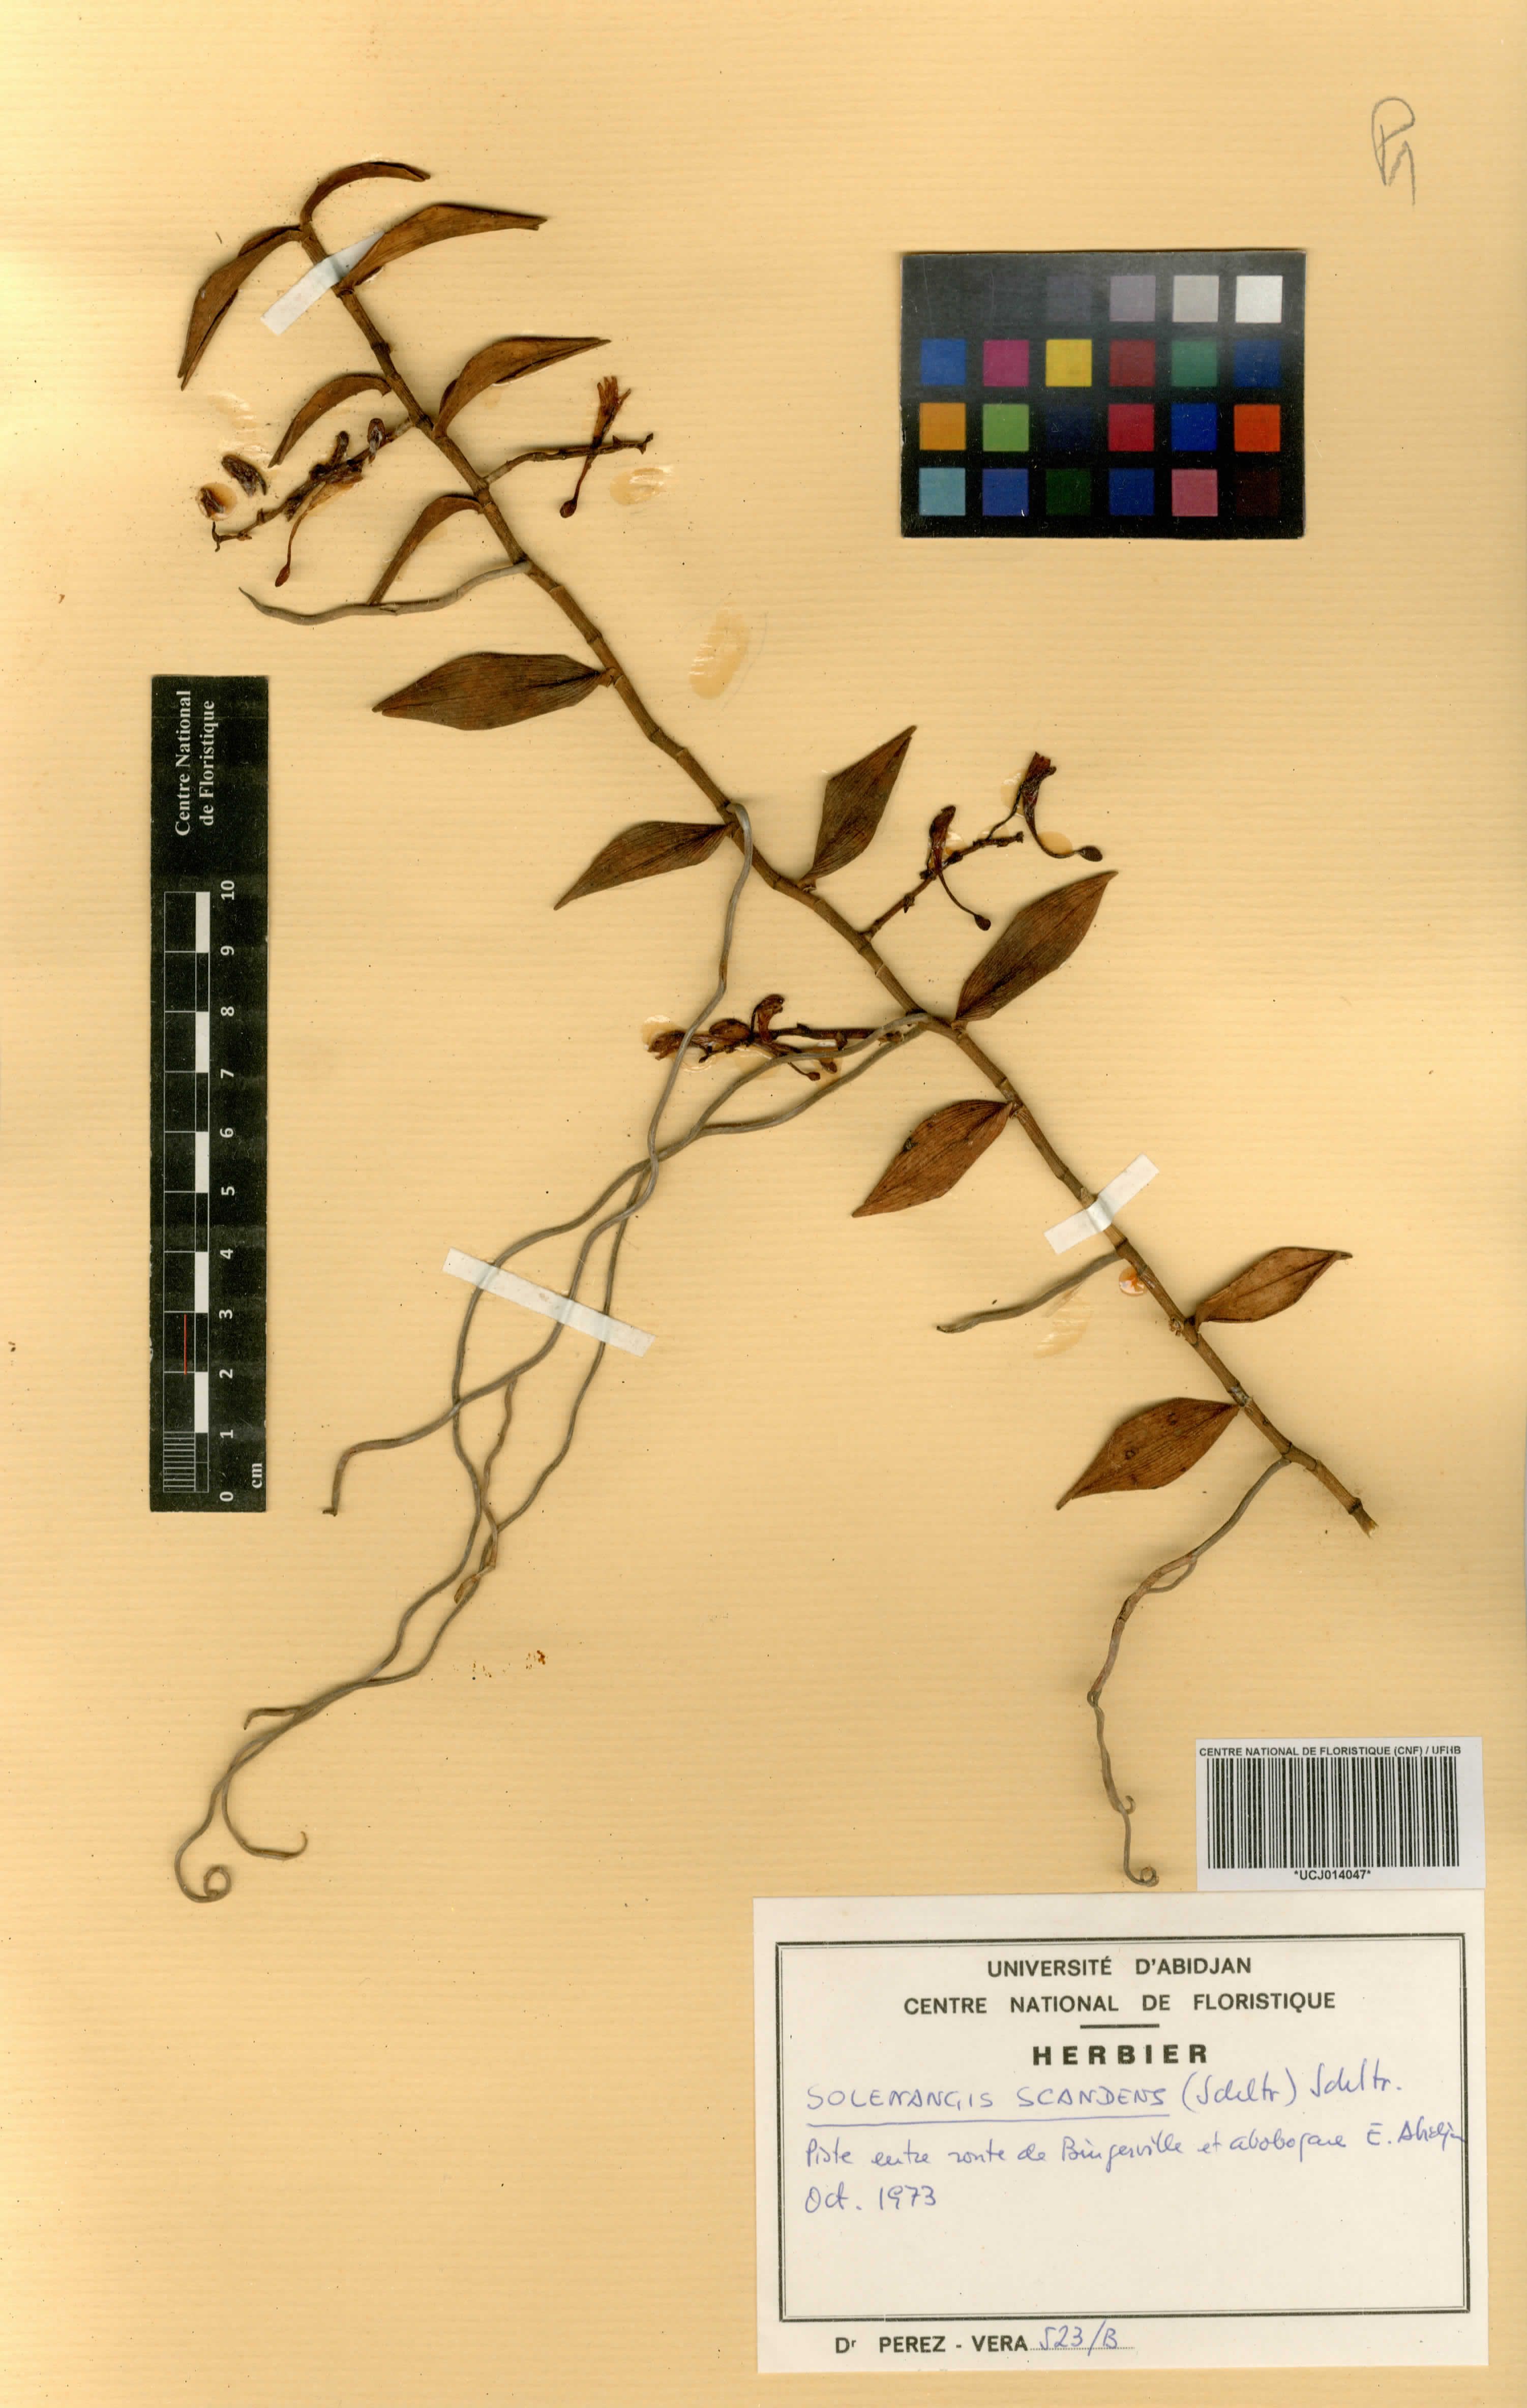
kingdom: Plantae
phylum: Tracheophyta
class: Liliopsida
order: Asparagales
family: Orchidaceae
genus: Solenangis
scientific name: Solenangis scandens
